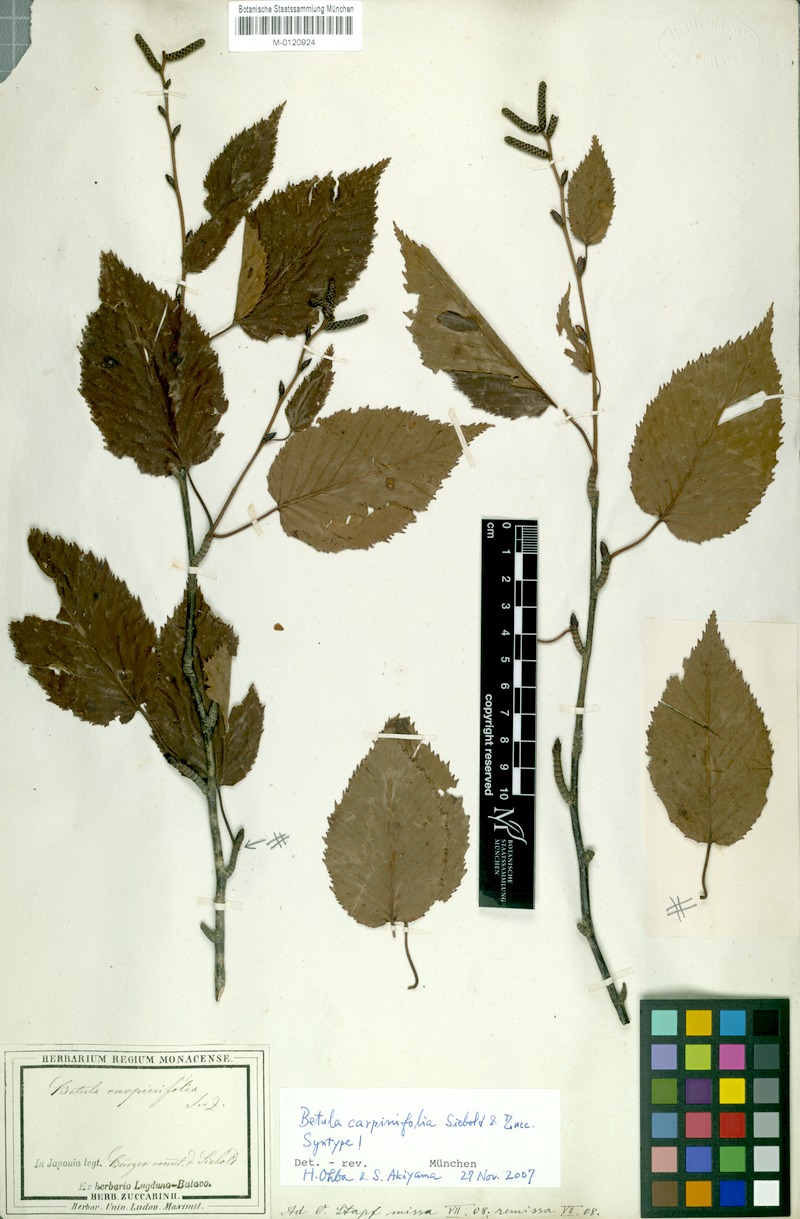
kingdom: Plantae
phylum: Tracheophyta
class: Magnoliopsida
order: Fagales
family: Betulaceae
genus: Betula
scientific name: Betula grossa
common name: Japanese cherry birch
